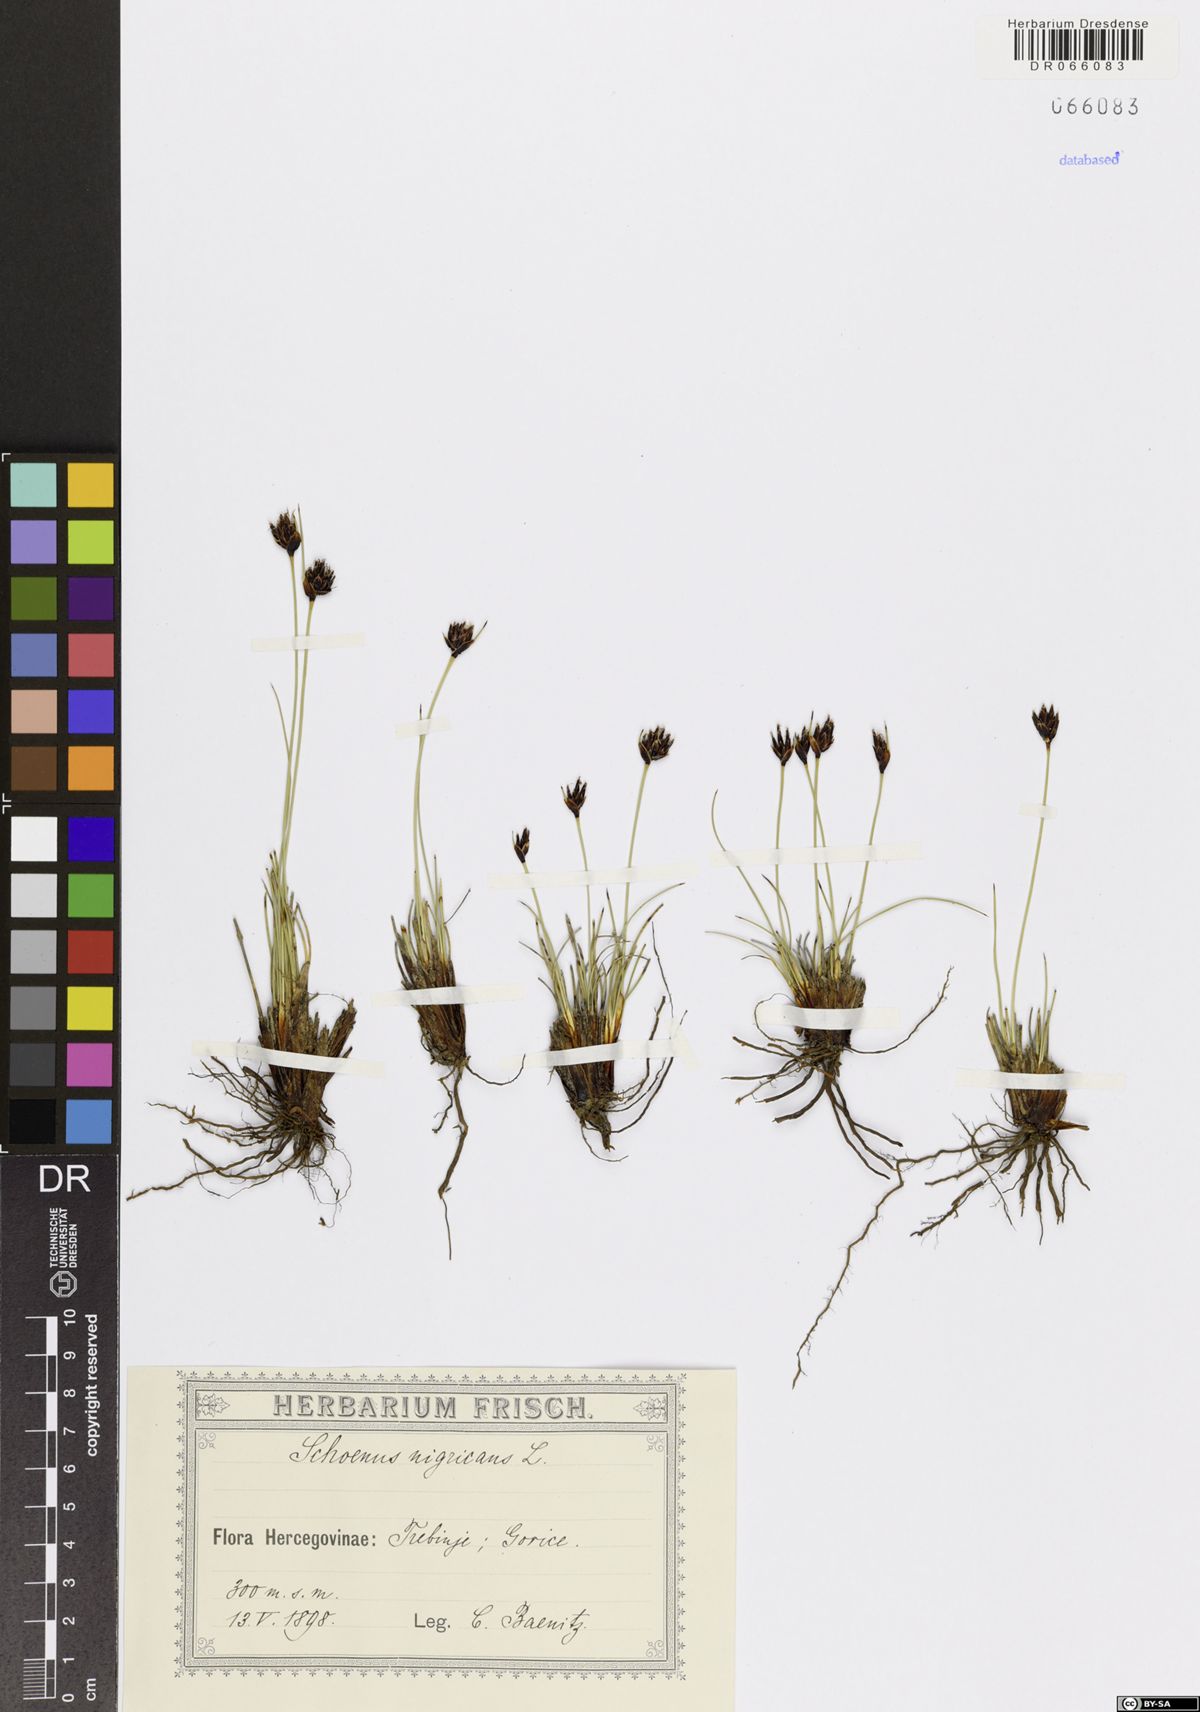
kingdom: Plantae
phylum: Tracheophyta
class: Liliopsida
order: Poales
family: Cyperaceae
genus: Schoenus
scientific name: Schoenus nigricans
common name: Black bog-rush
